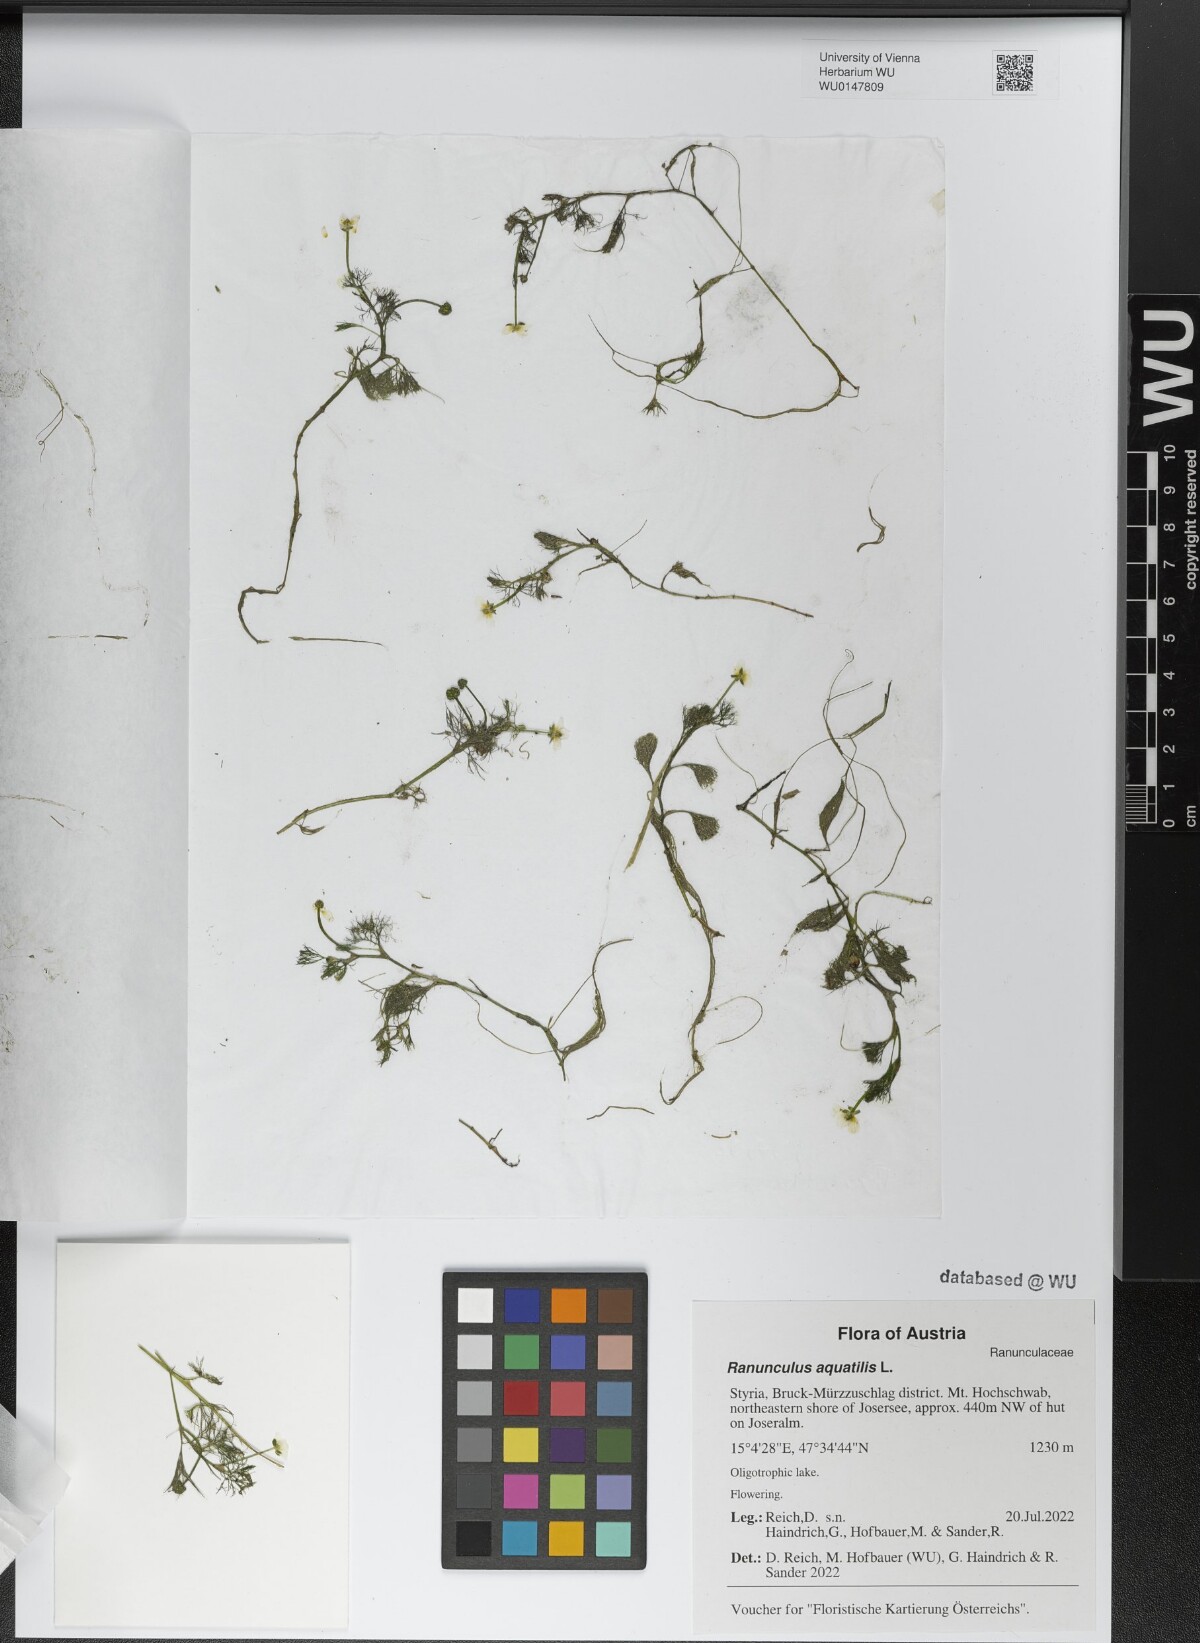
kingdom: Plantae
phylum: Tracheophyta
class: Magnoliopsida
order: Ranunculales
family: Ranunculaceae
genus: Ranunculus
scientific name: Ranunculus aquatilis
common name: Common water-crowfoot
